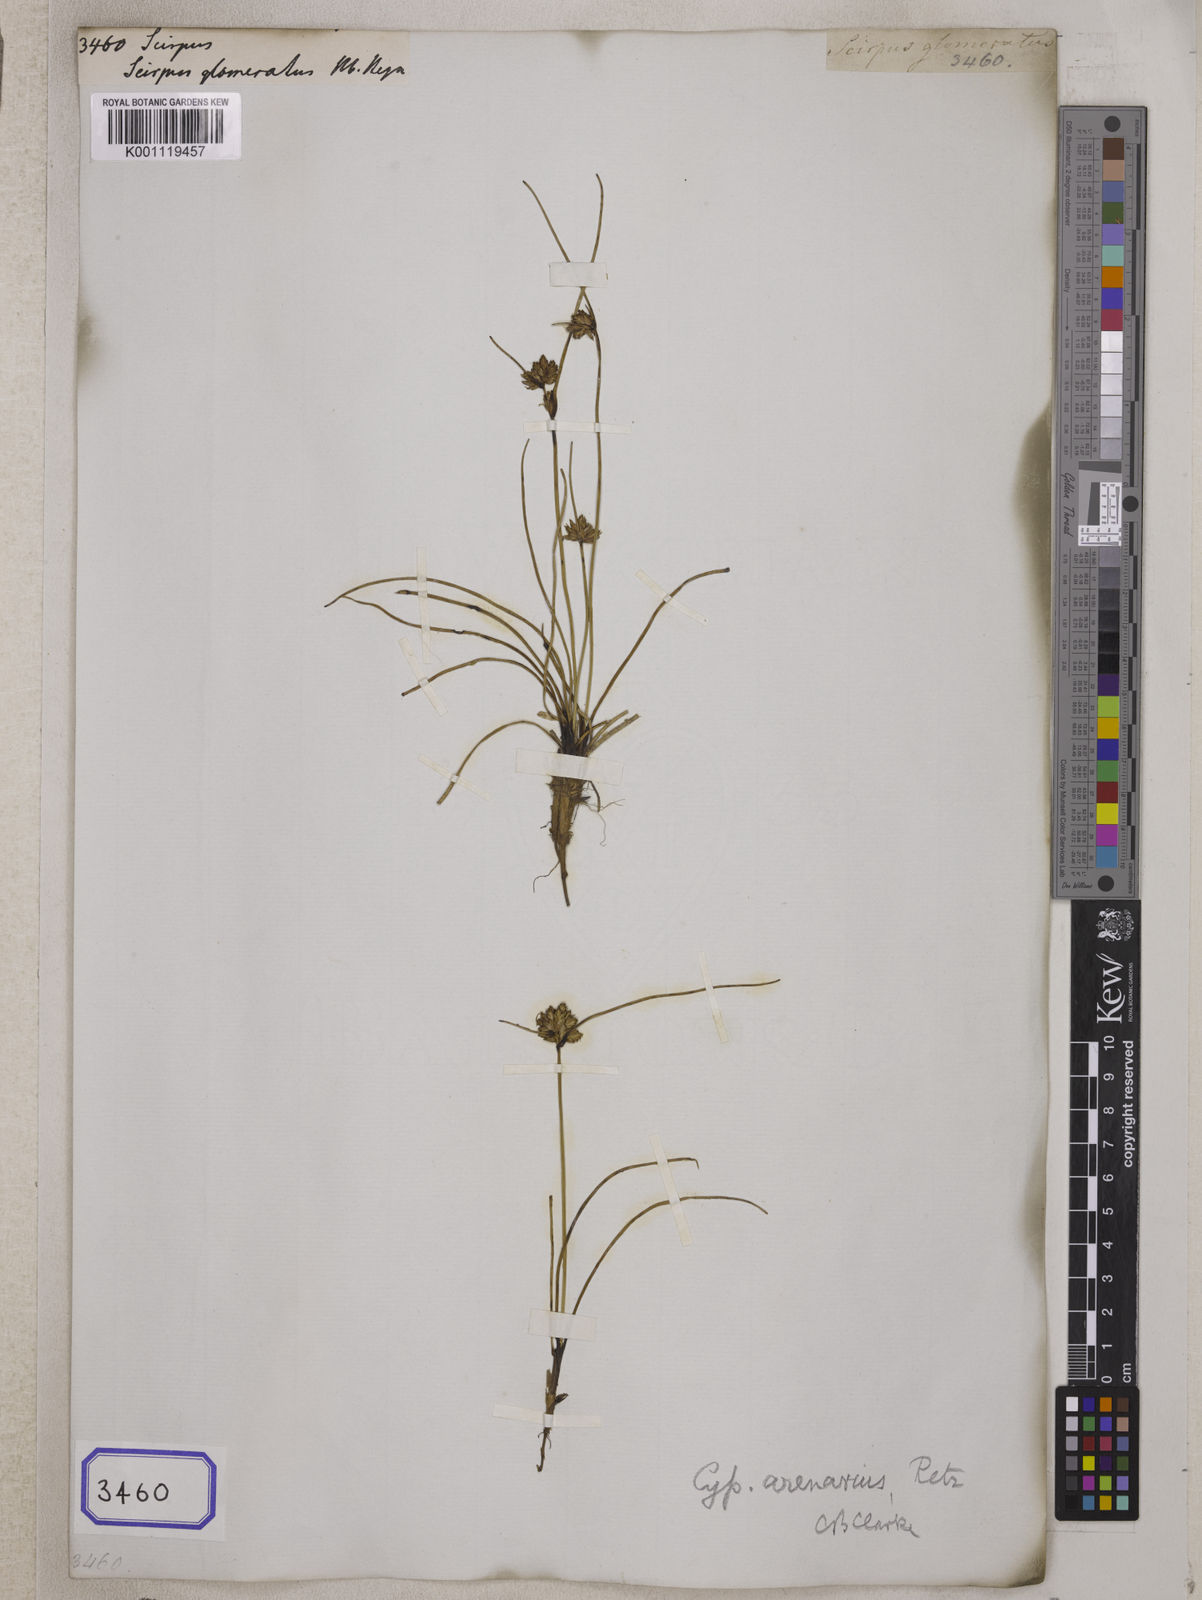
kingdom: Plantae
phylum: Tracheophyta
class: Liliopsida
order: Poales
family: Cyperaceae
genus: Scirpus
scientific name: Scirpus
